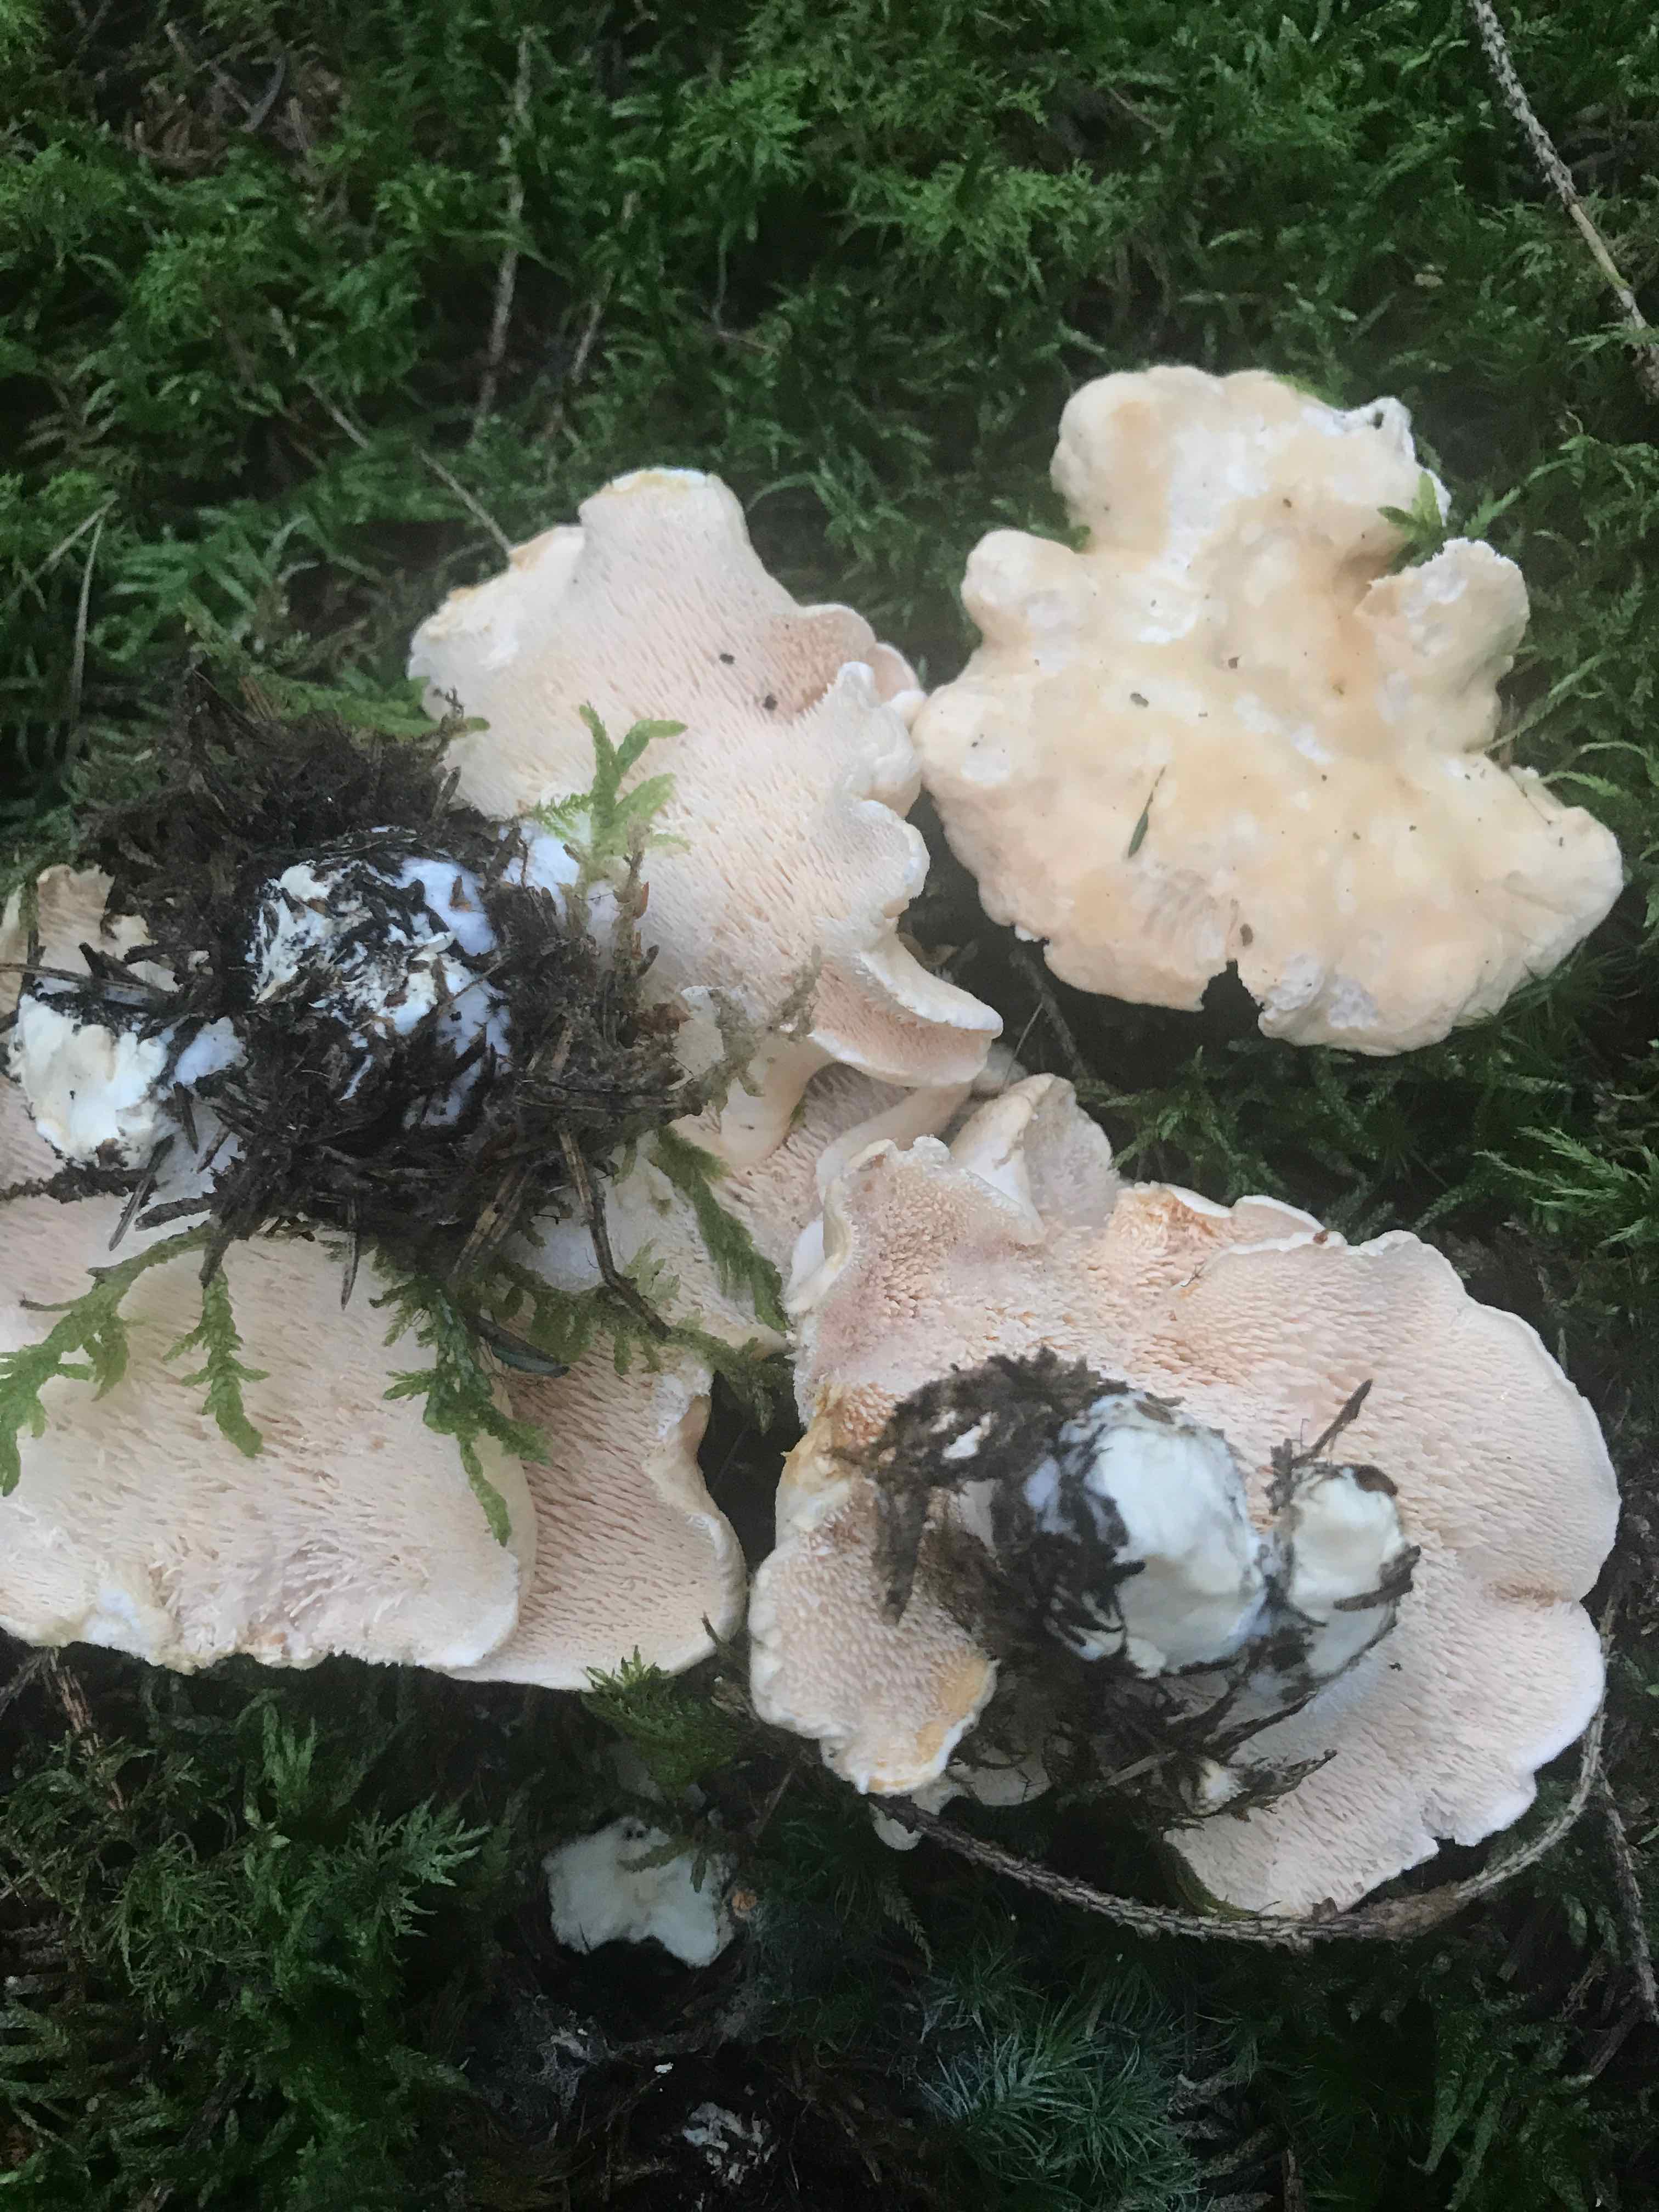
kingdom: Fungi
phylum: Basidiomycota
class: Agaricomycetes
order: Cantharellales
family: Hydnaceae
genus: Hydnum
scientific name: Hydnum repandum
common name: almindelig pigsvamp
